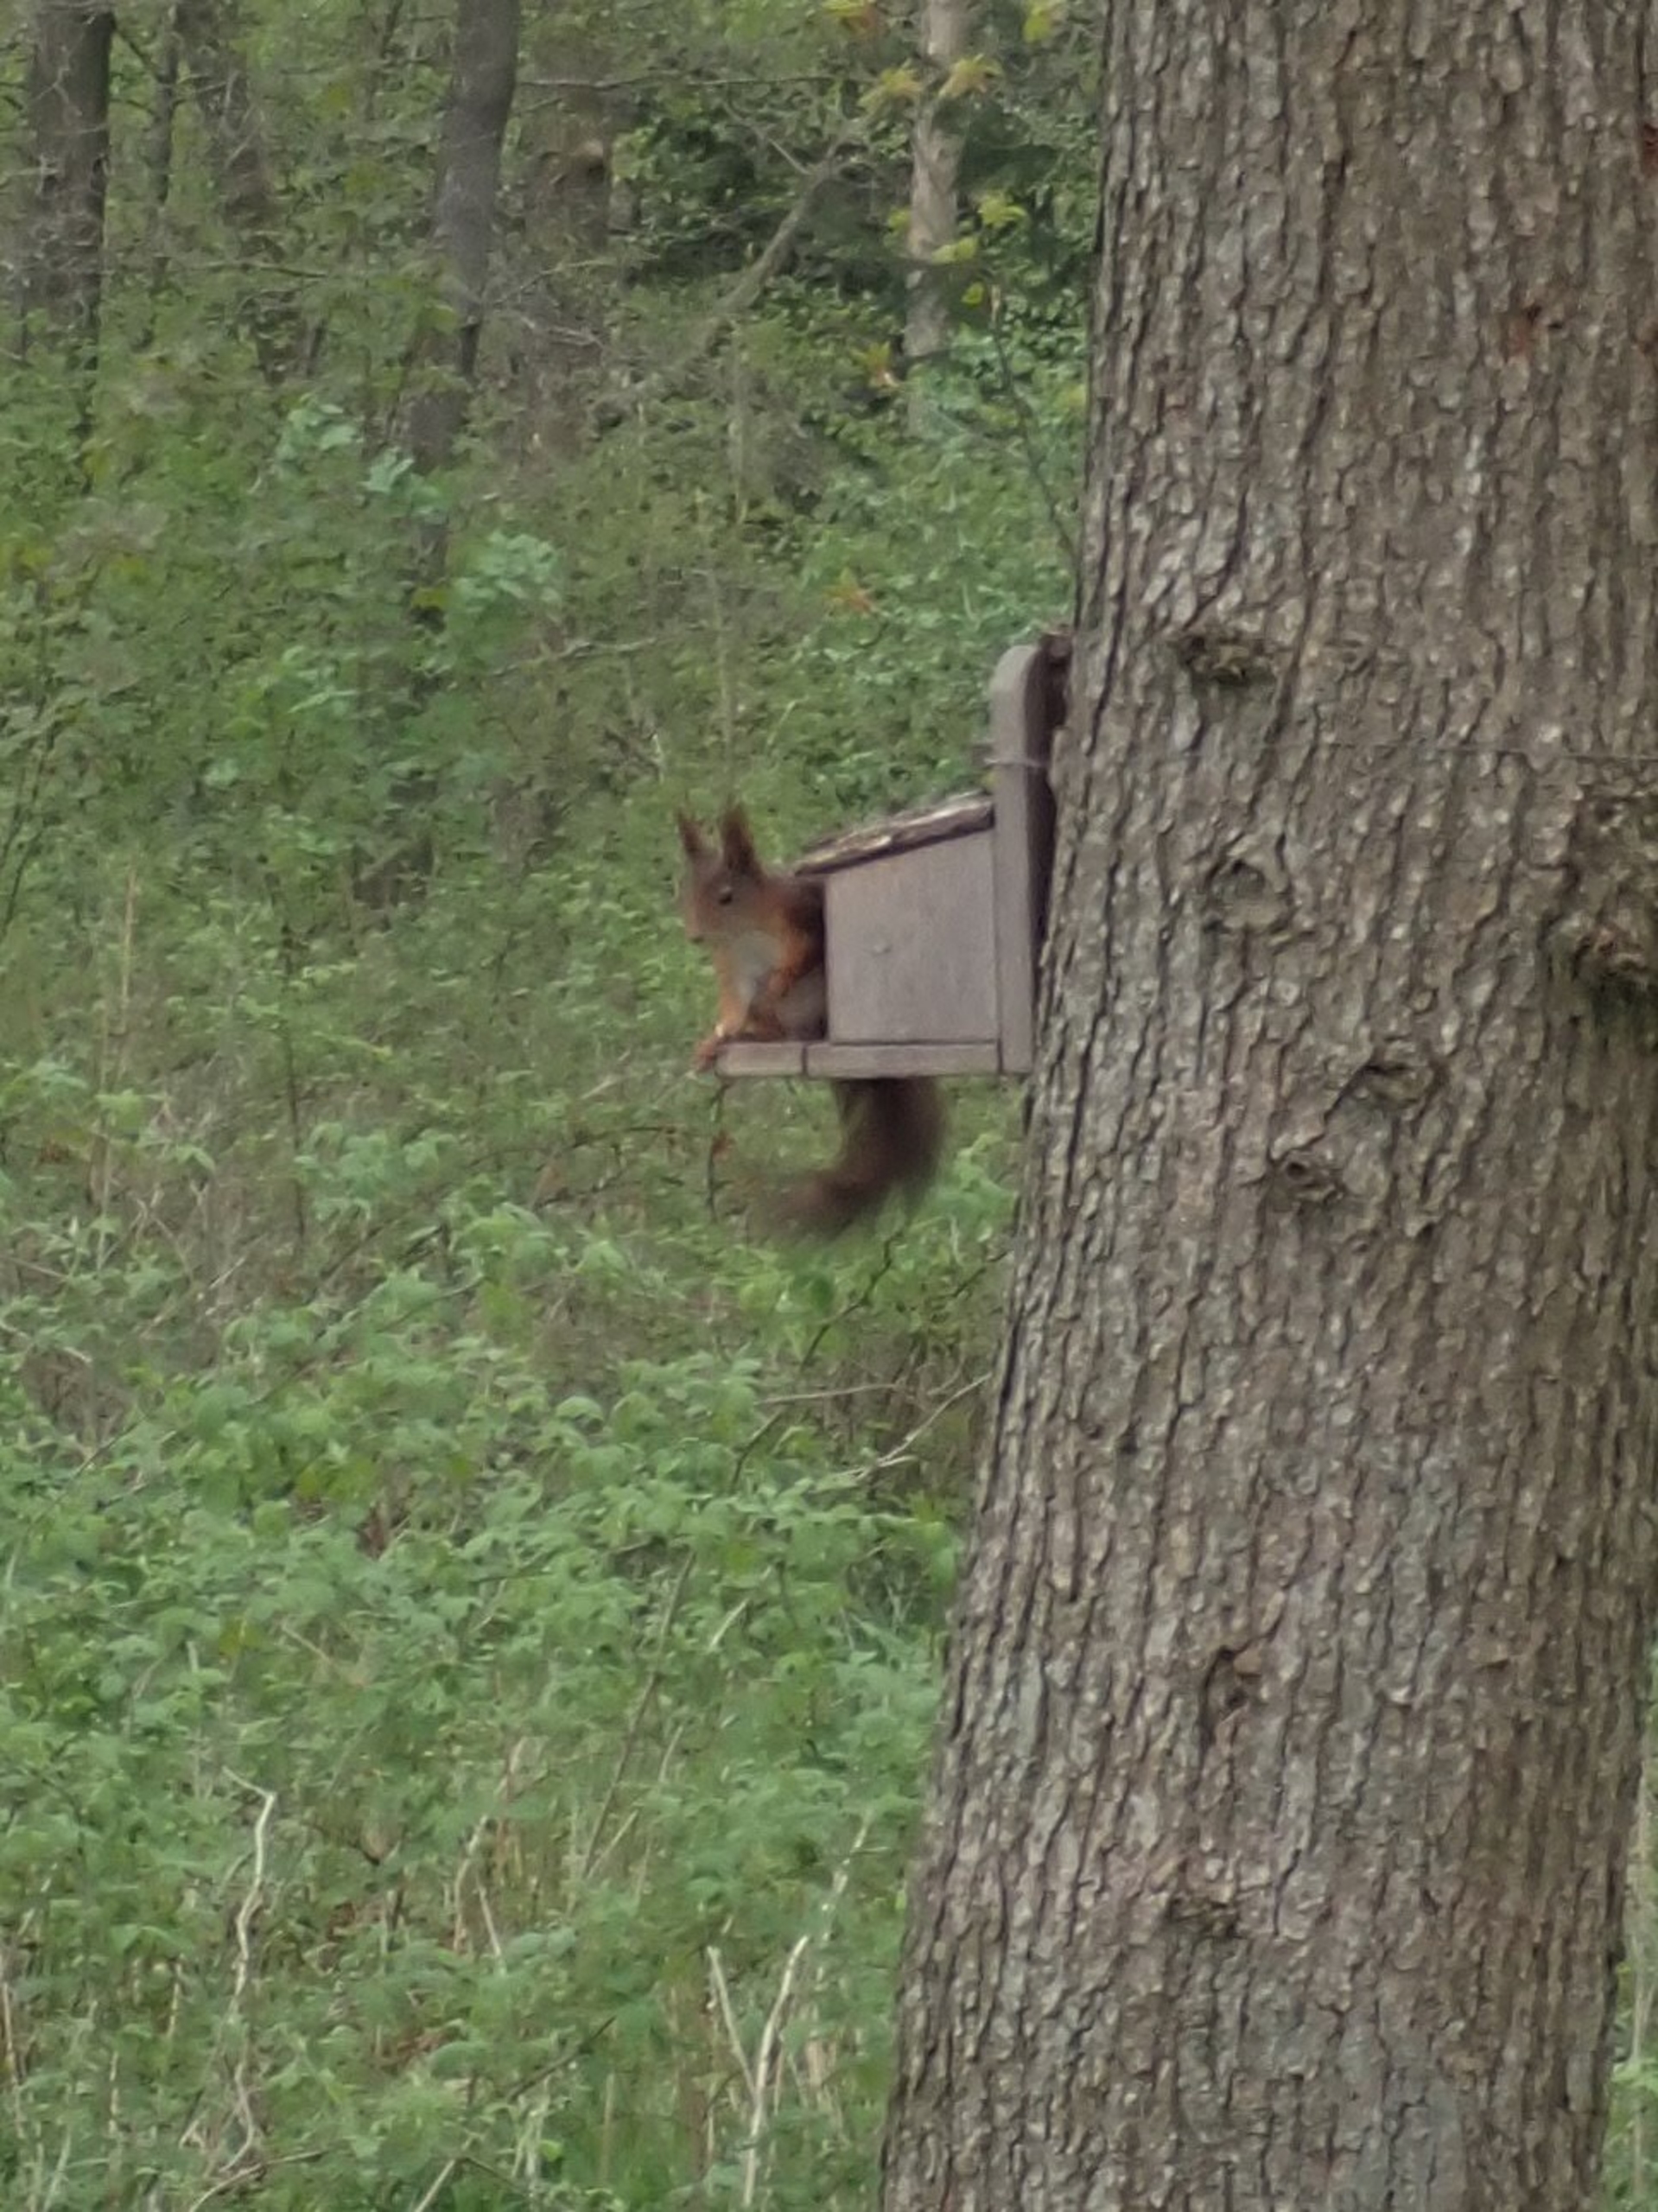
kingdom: Animalia
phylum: Chordata
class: Mammalia
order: Rodentia
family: Sciuridae
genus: Sciurus
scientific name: Sciurus vulgaris
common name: Egern
